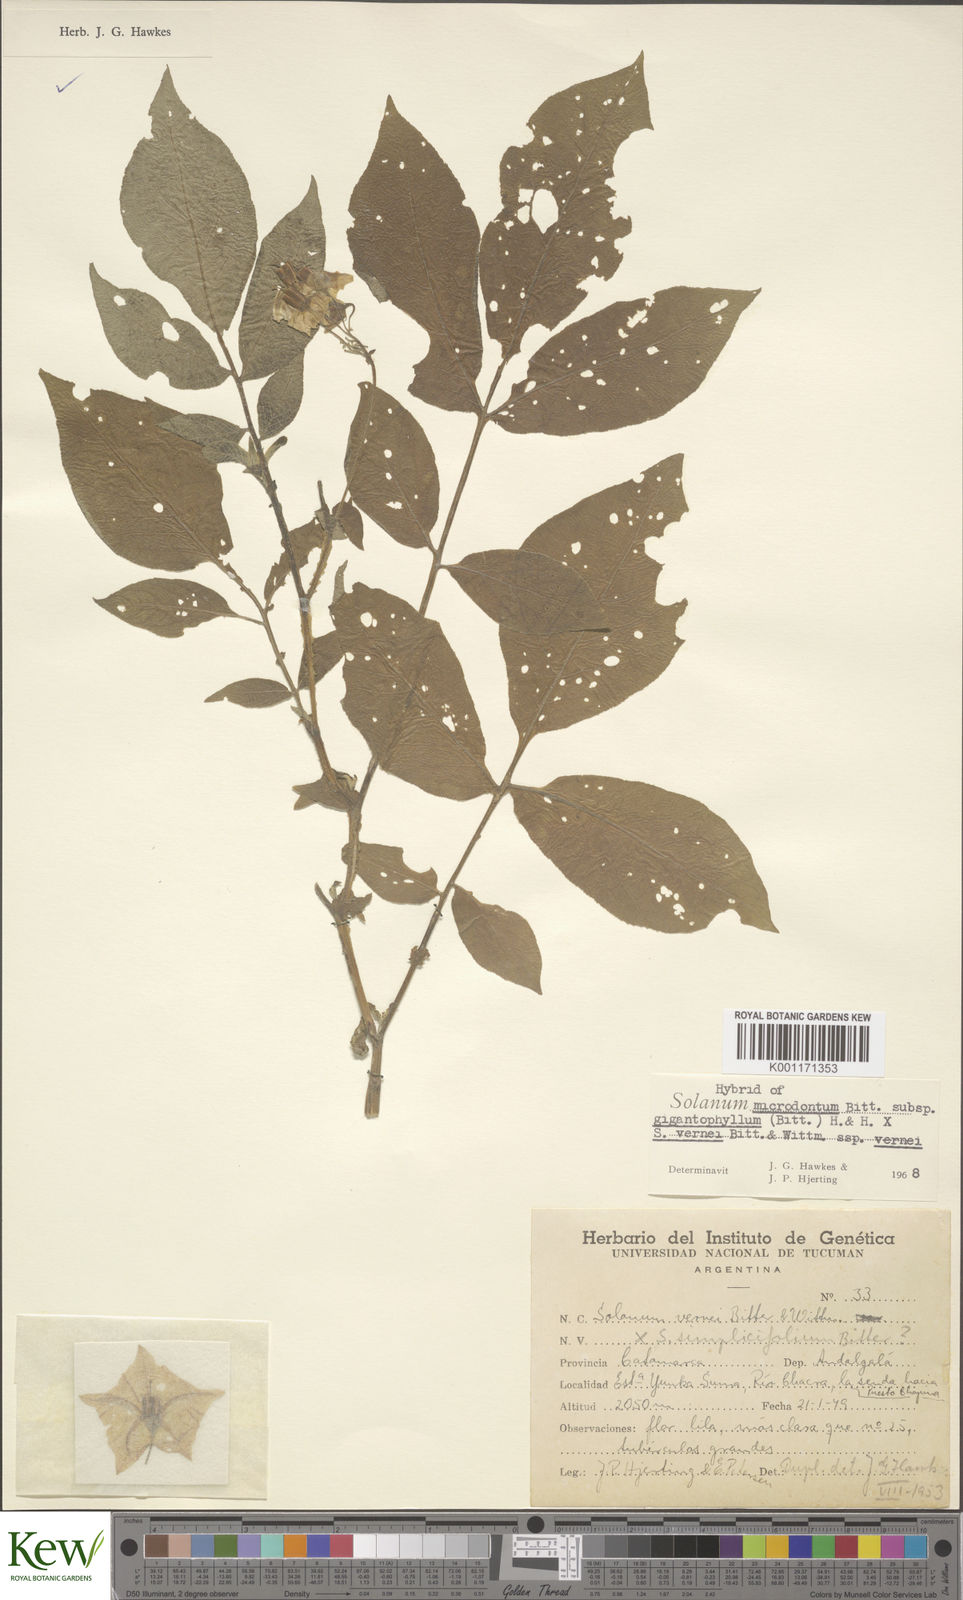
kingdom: Plantae
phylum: Tracheophyta
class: Magnoliopsida
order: Solanales
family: Solanaceae
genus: Solanum
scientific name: Solanum microdontum
